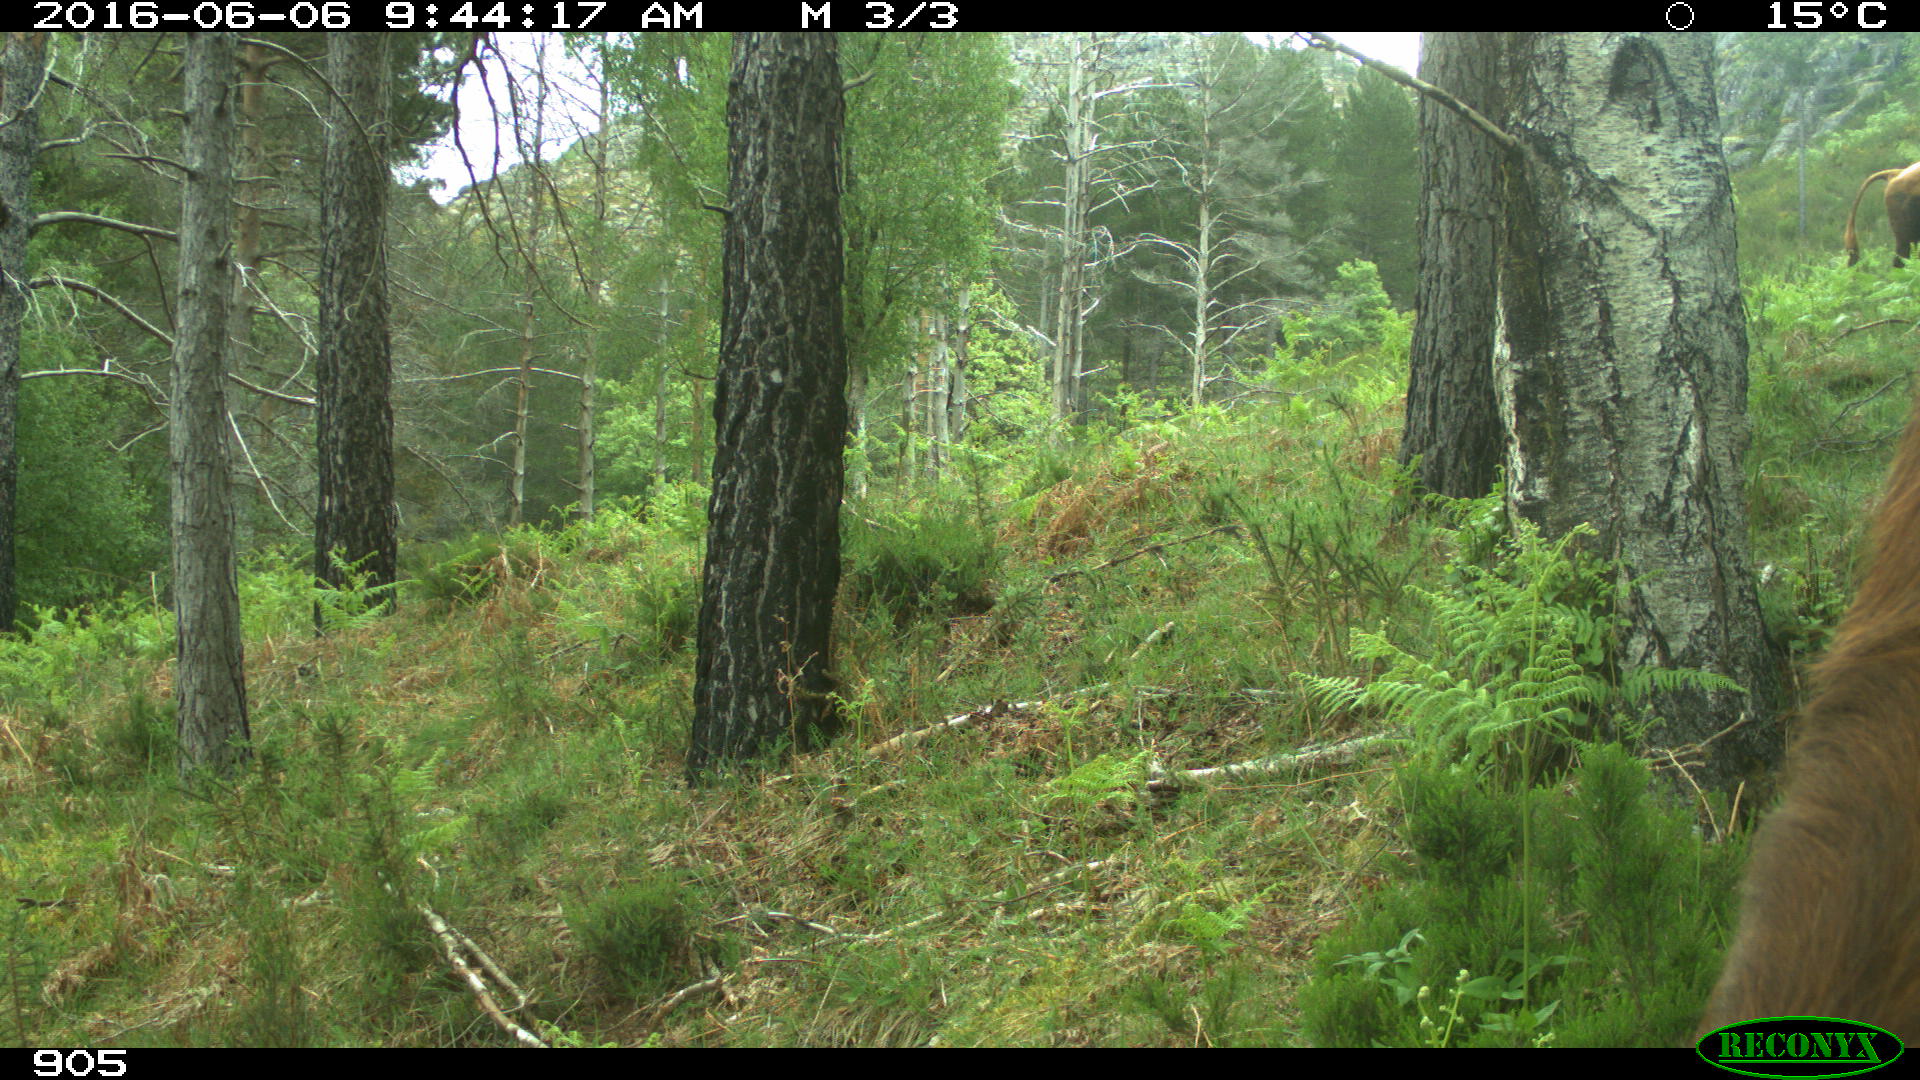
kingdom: Animalia
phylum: Chordata
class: Mammalia
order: Artiodactyla
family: Bovidae
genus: Bos
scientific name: Bos taurus
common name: Domesticated cattle
